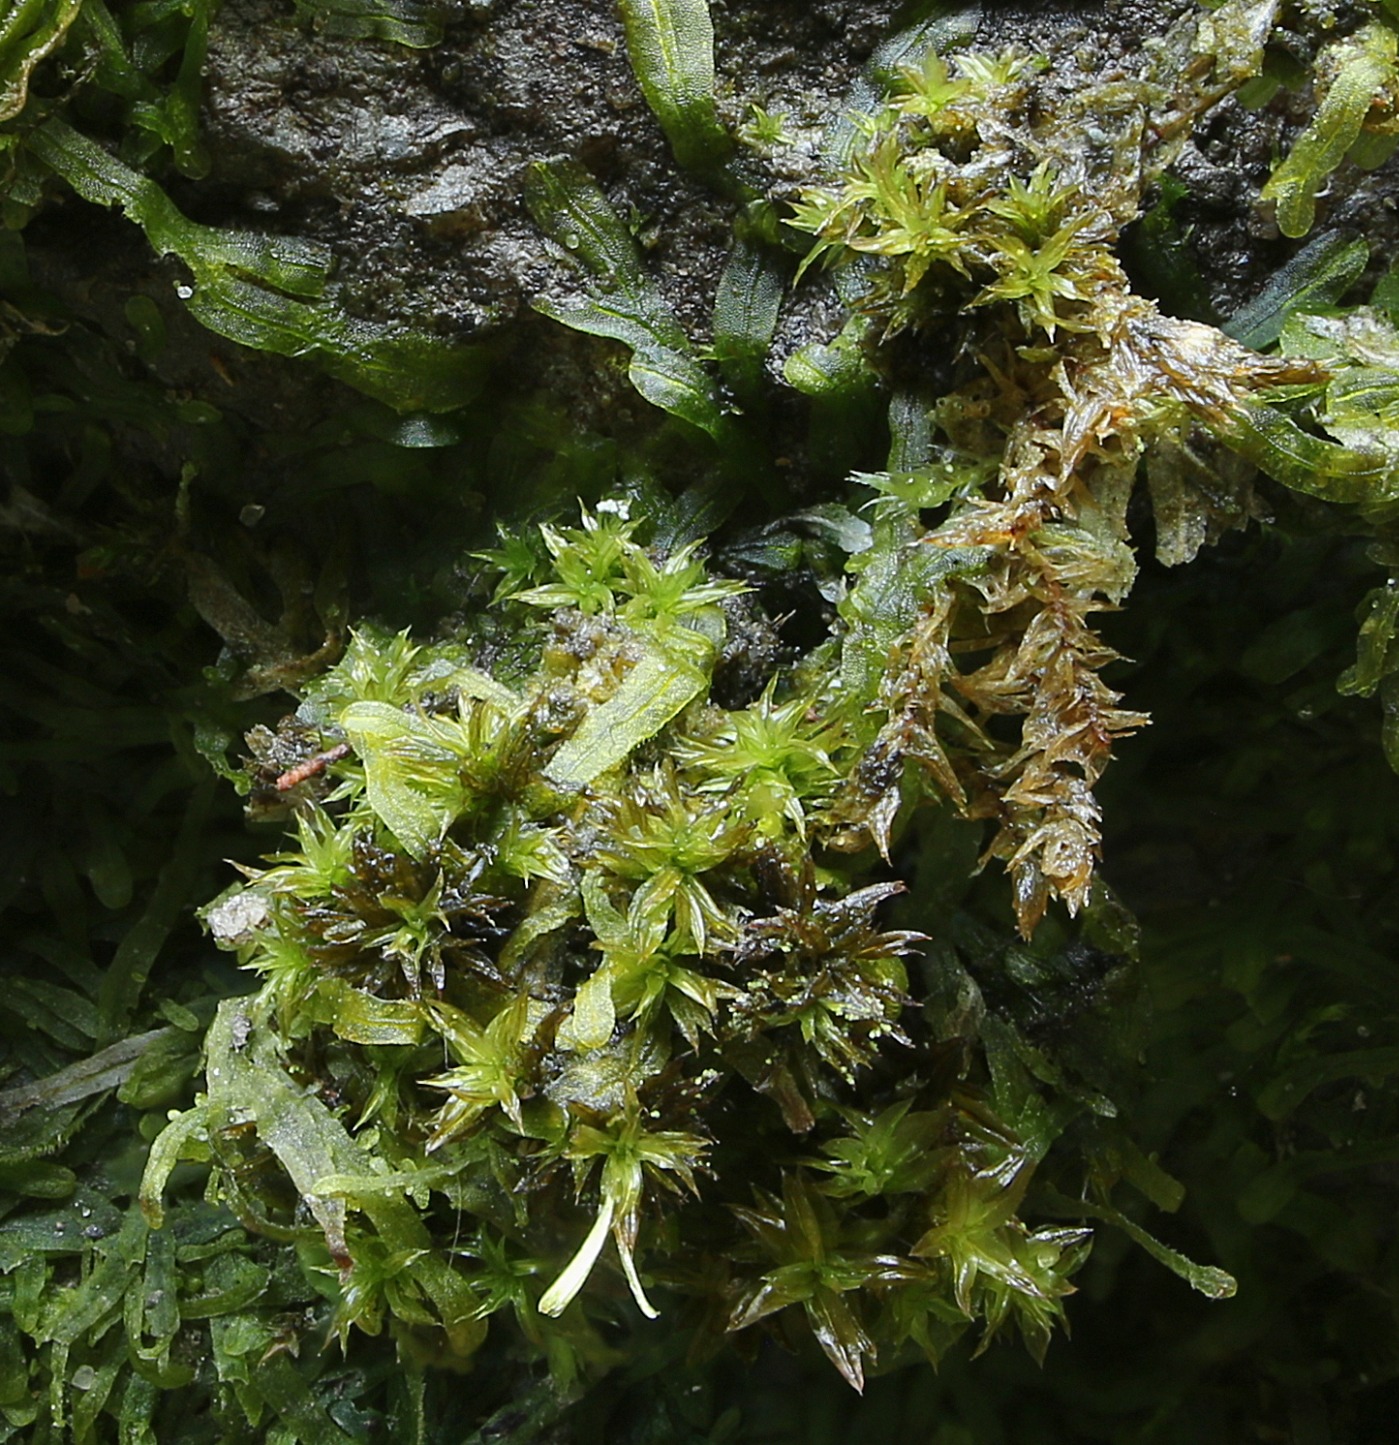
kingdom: Plantae
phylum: Bryophyta
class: Bryopsida
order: Orthotrichales
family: Orthotrichaceae
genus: Zygodon
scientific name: Zygodon stirtonii
